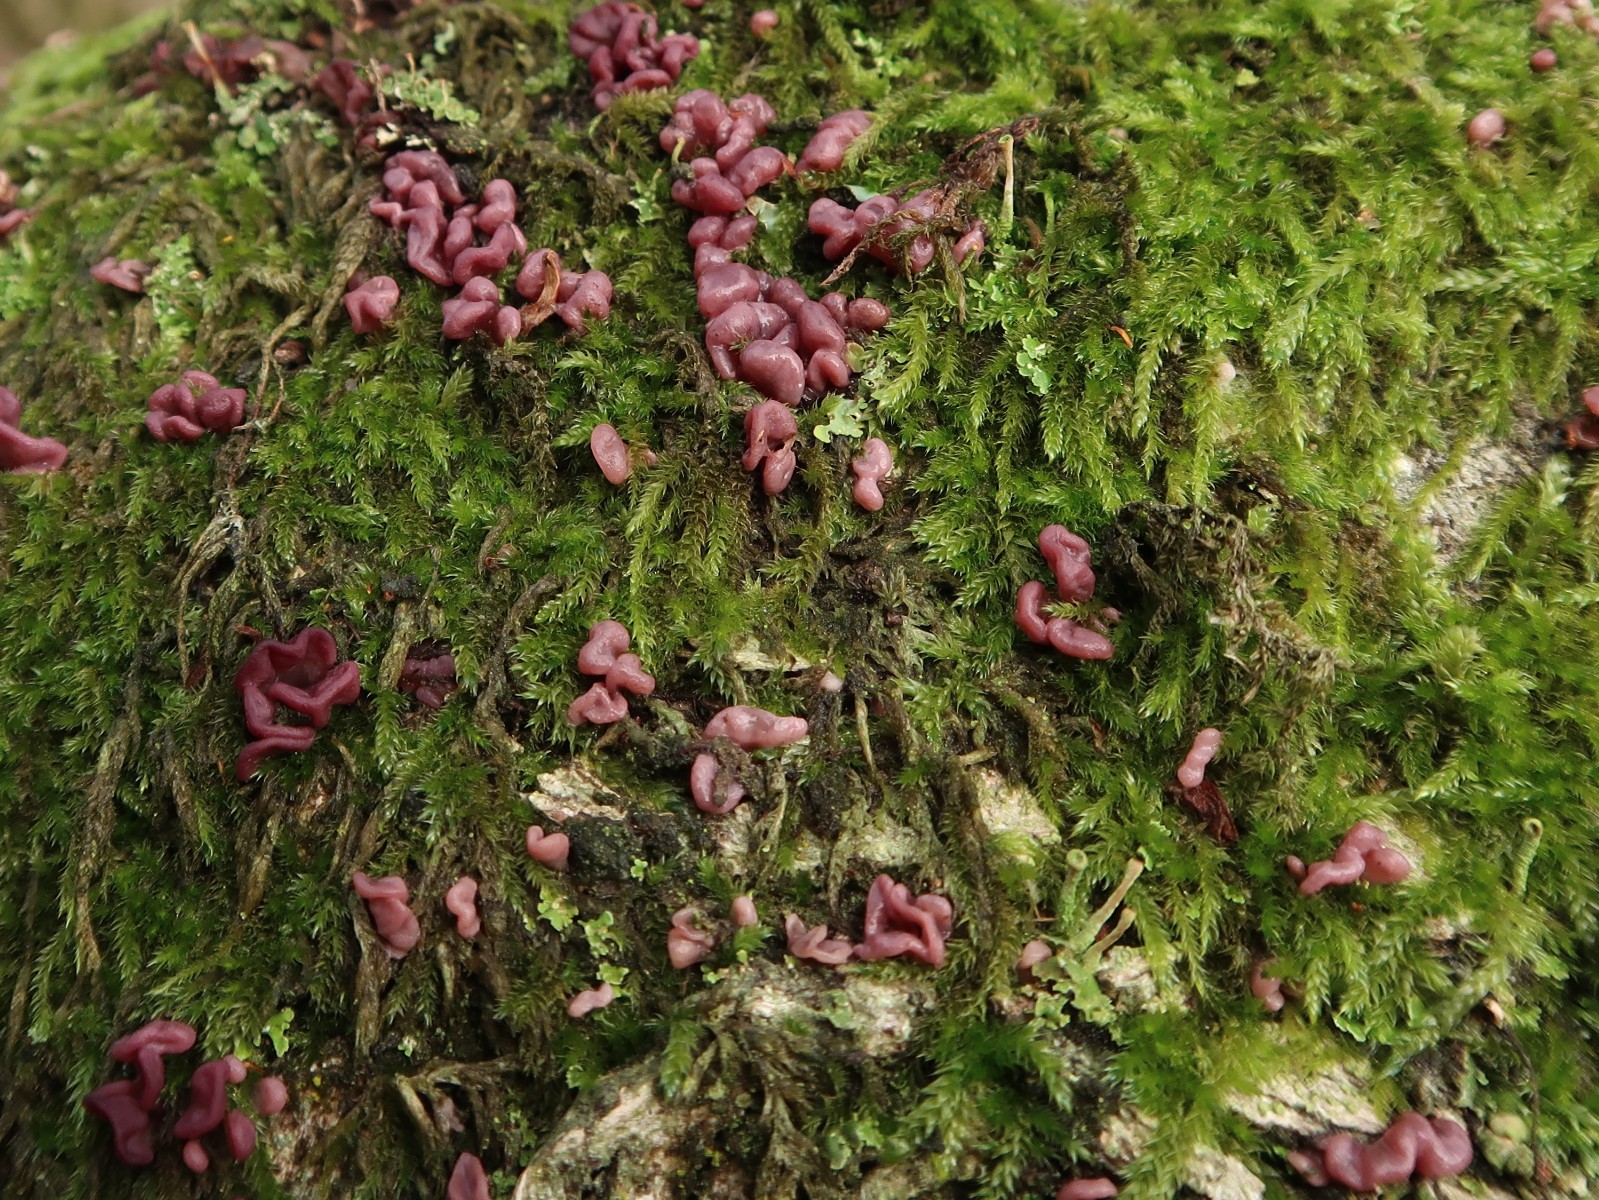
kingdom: Fungi
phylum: Ascomycota
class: Leotiomycetes
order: Helotiales
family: Gelatinodiscaceae
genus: Ascocoryne
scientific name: Ascocoryne sarcoides
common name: rødlilla sejskive
